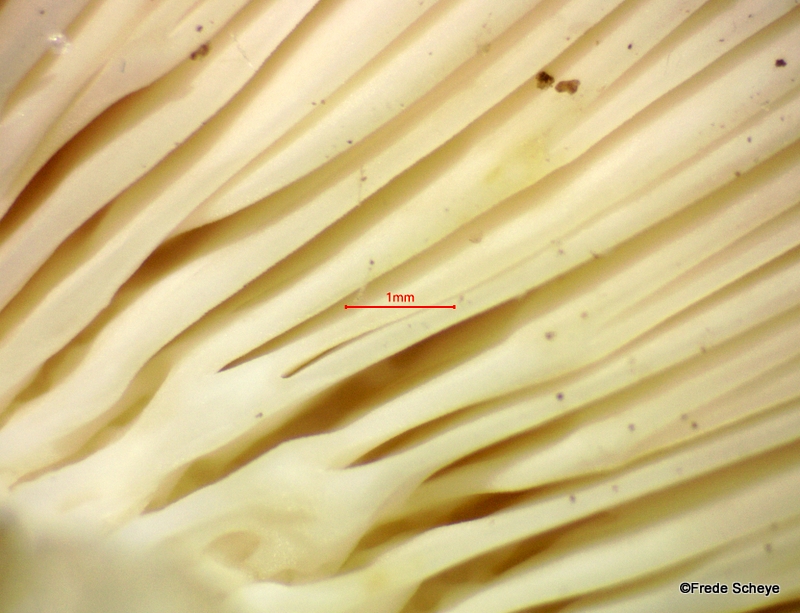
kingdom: Fungi
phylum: Basidiomycota
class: Agaricomycetes
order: Russulales
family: Russulaceae
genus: Russula
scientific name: Russula heterophylla
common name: gaffelbladet skørhat
